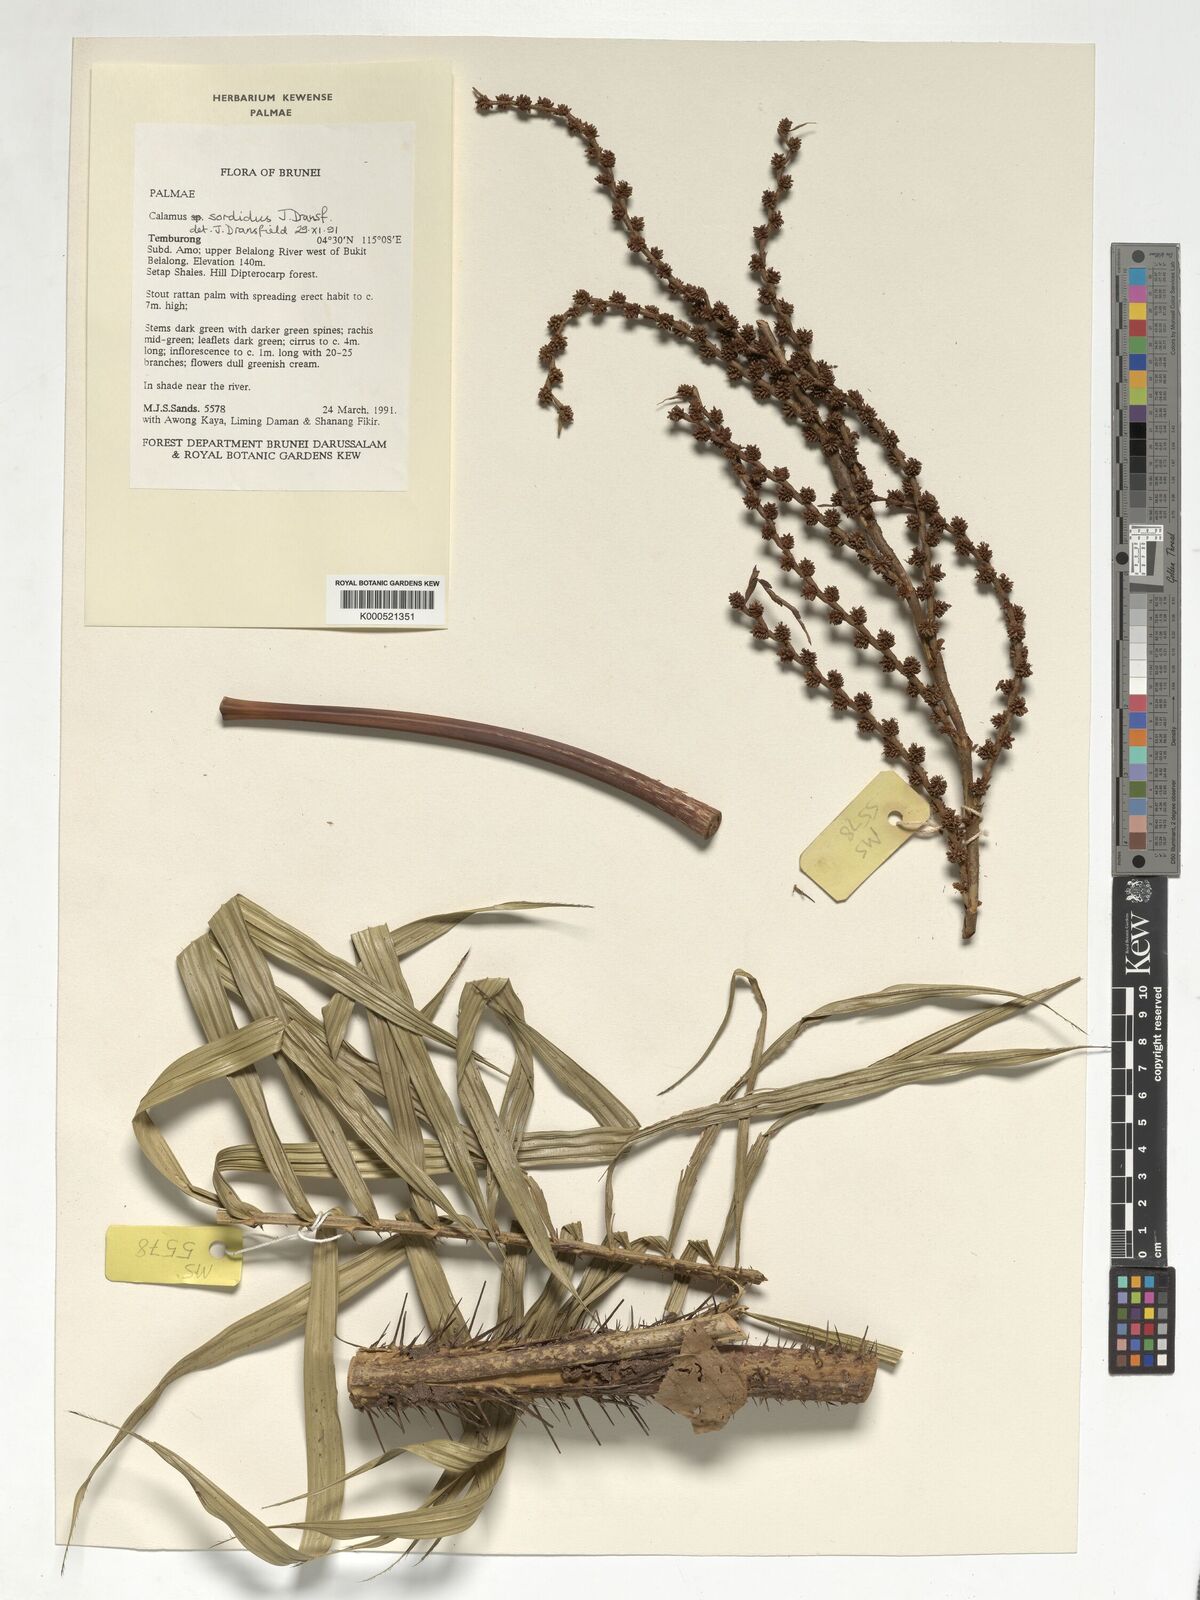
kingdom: Plantae
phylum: Tracheophyta
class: Liliopsida
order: Arecales
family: Arecaceae
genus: Calamus
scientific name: Calamus sordidus
